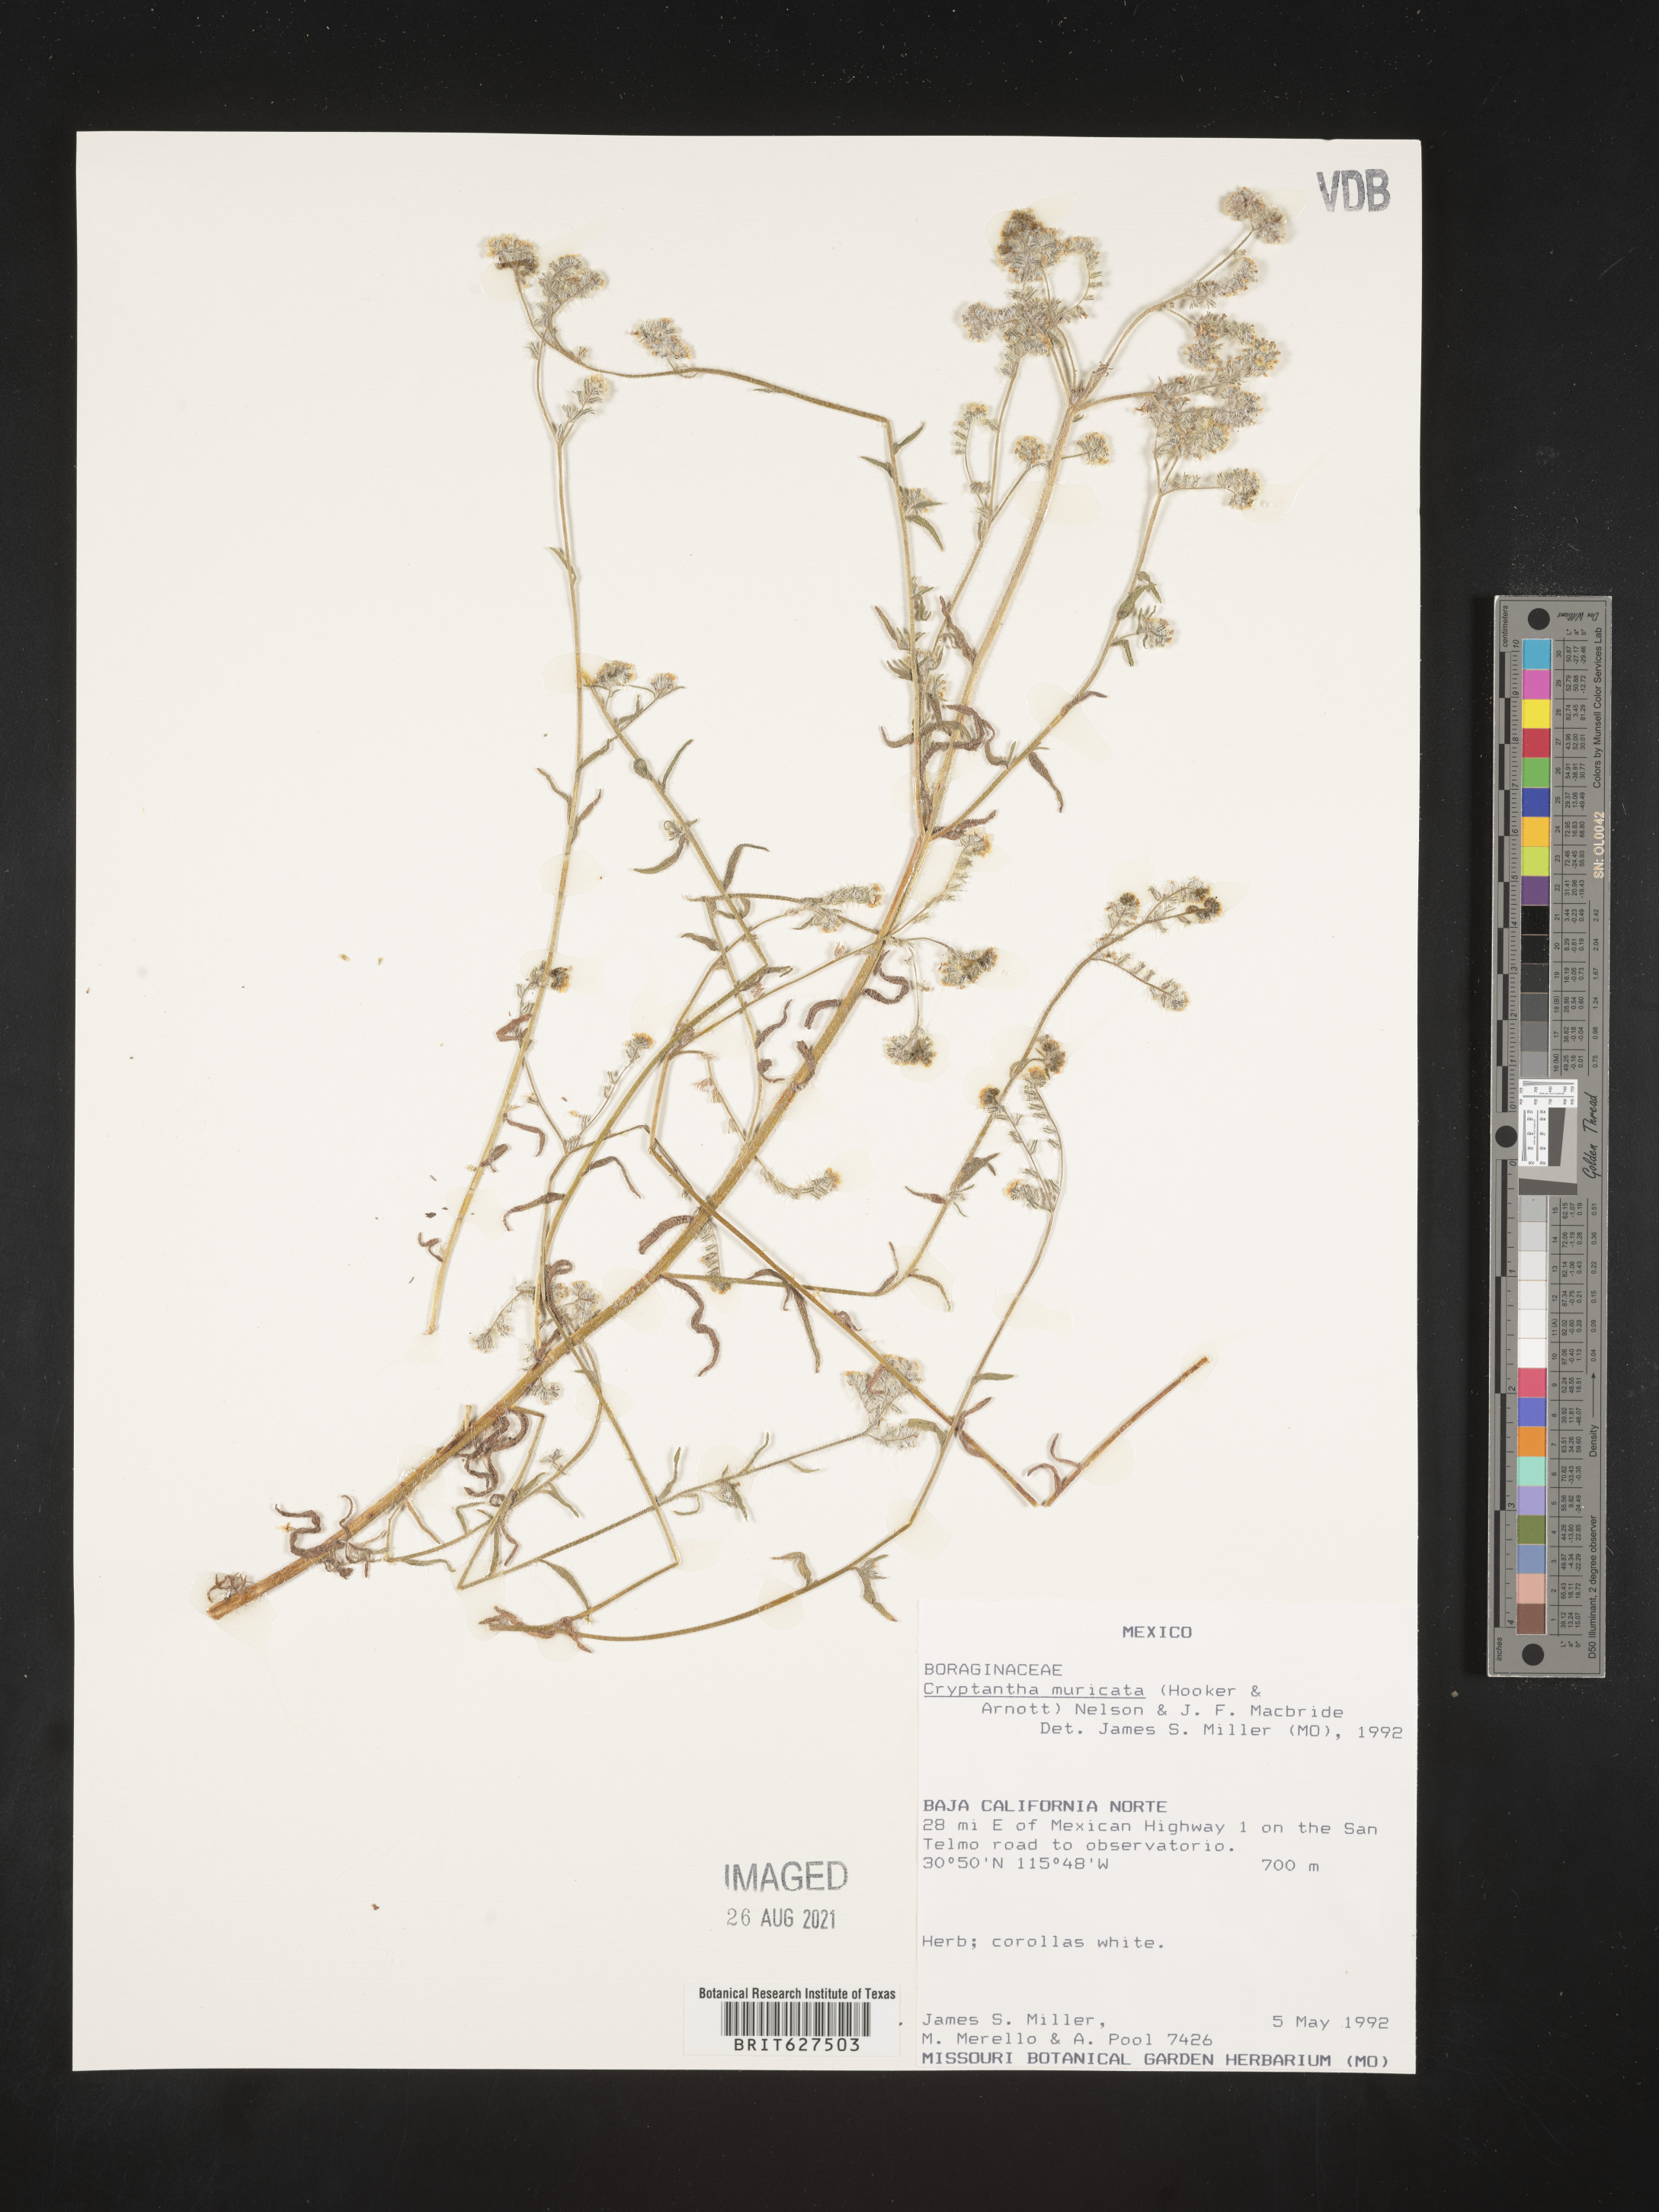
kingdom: Plantae
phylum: Tracheophyta
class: Magnoliopsida
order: Boraginales
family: Boraginaceae
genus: Cryptantha
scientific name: Cryptantha
